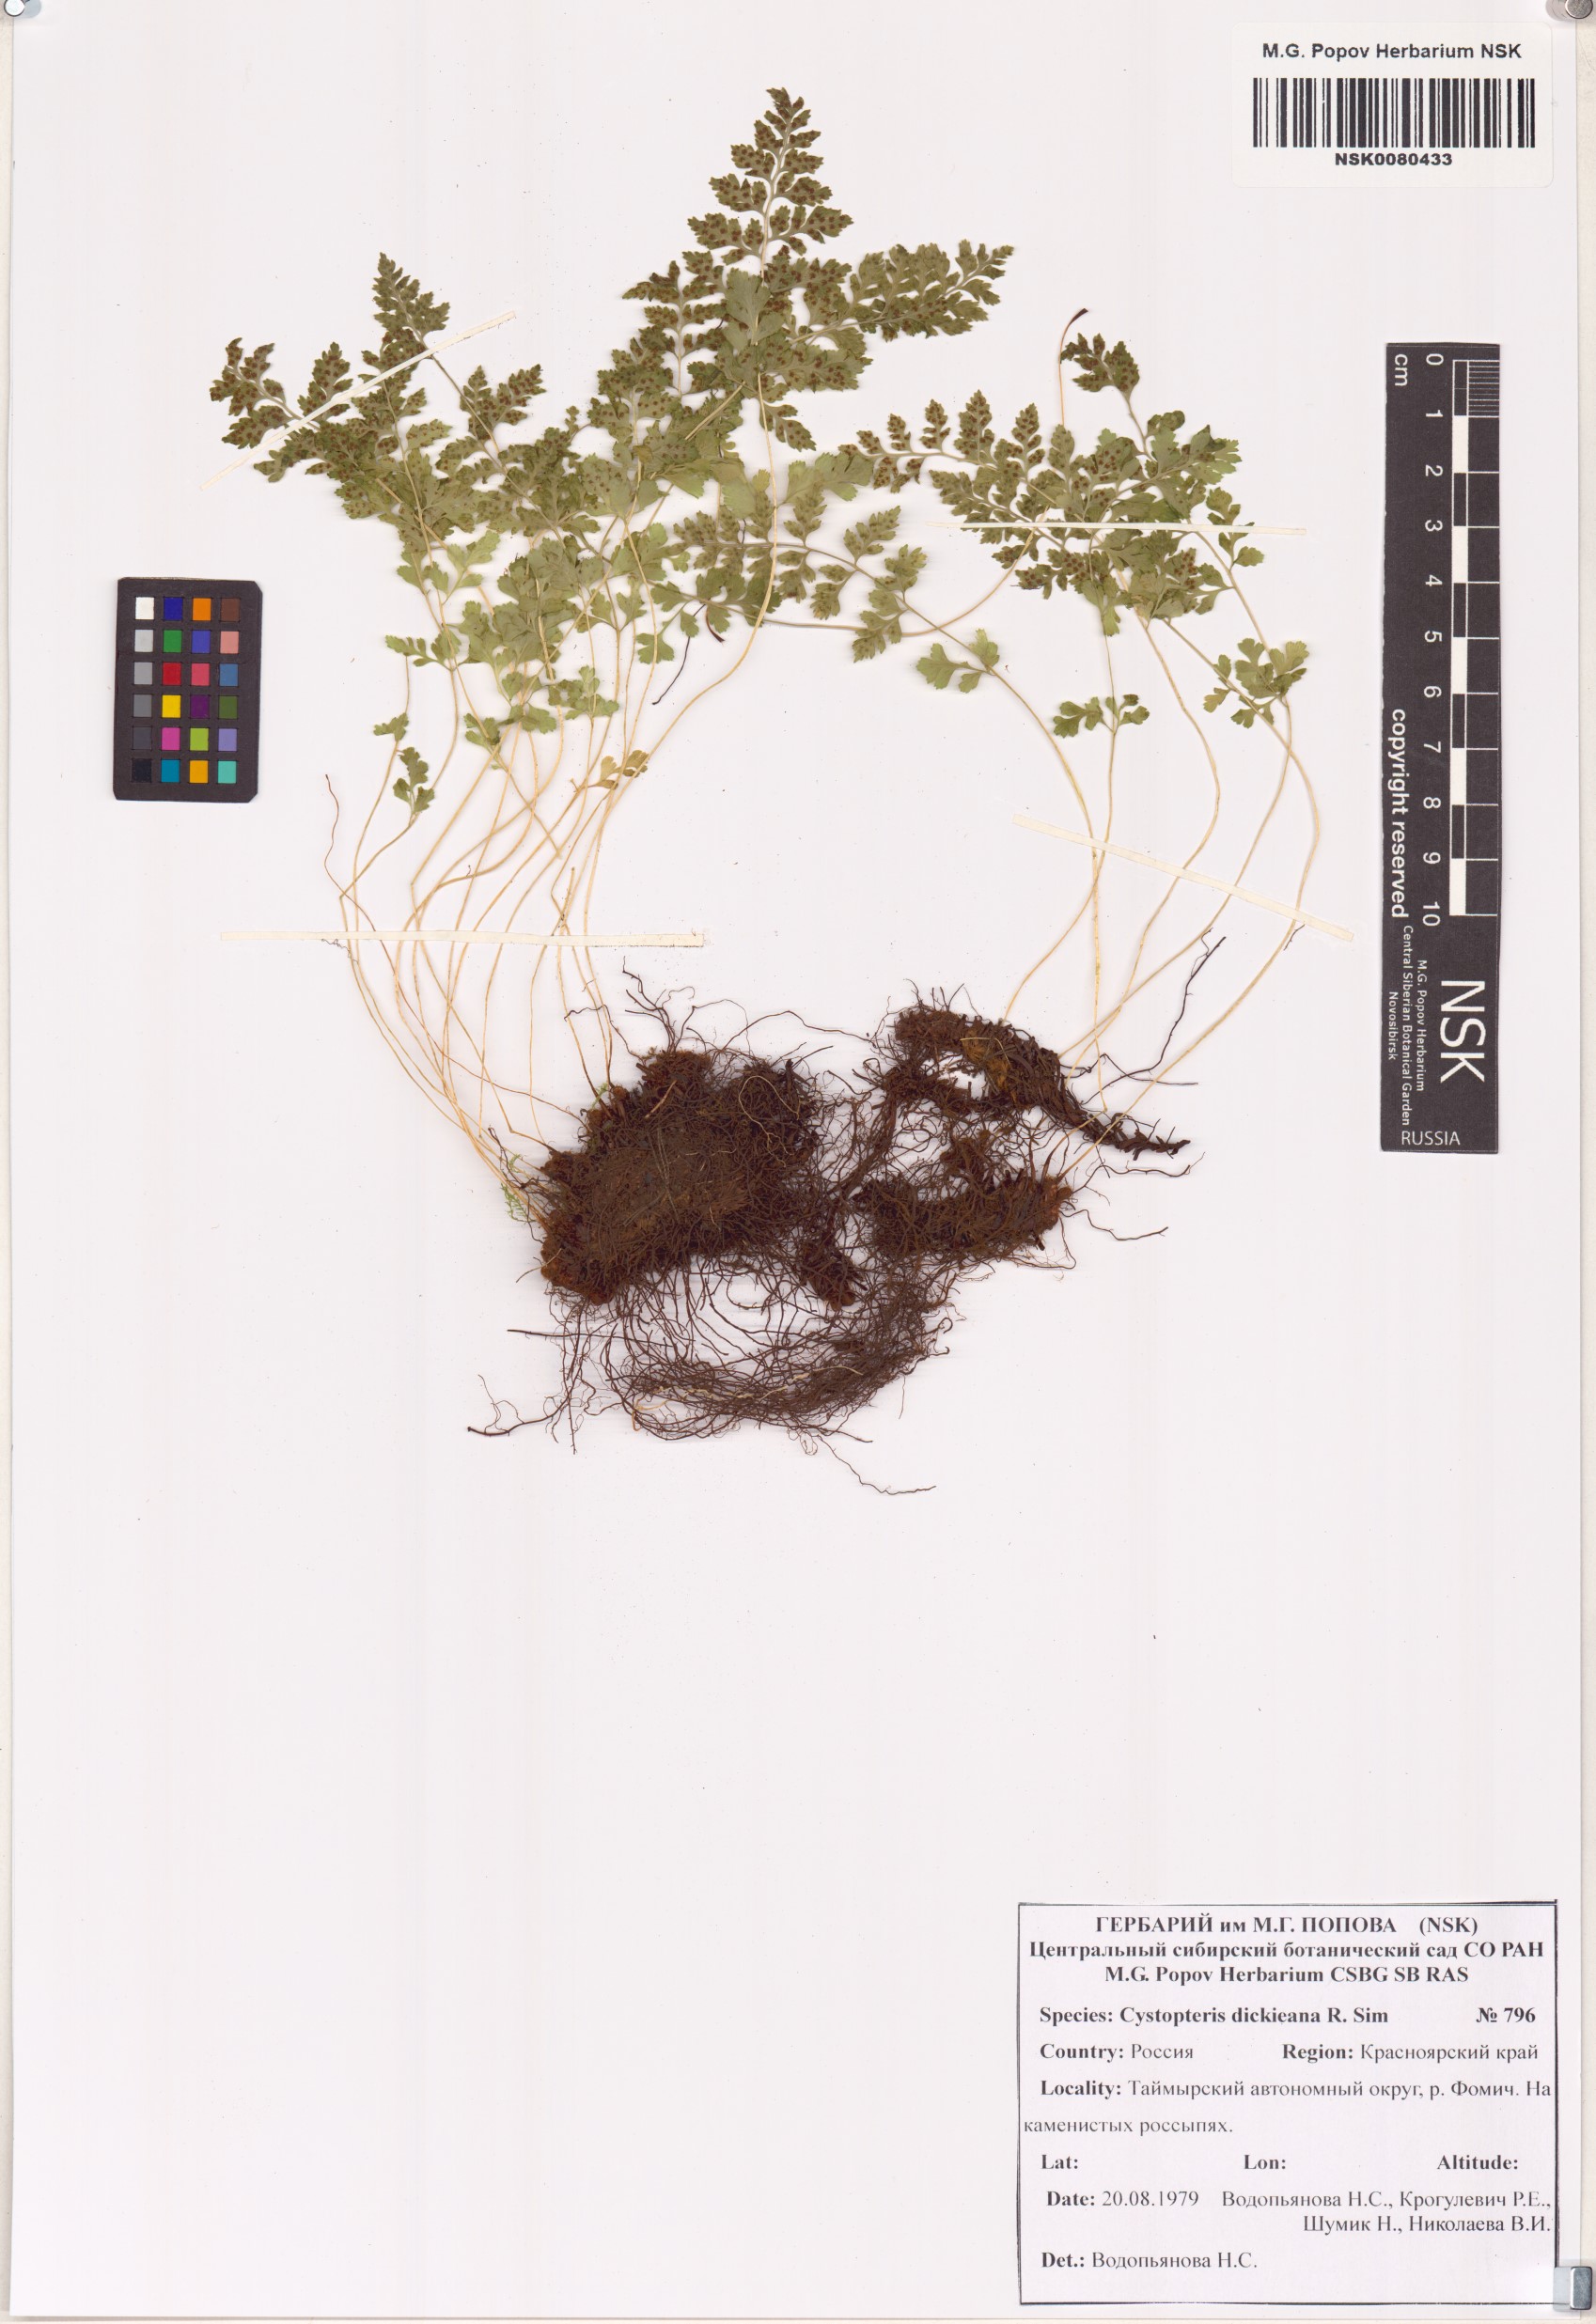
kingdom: Plantae
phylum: Tracheophyta
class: Polypodiopsida
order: Polypodiales
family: Cystopteridaceae
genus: Cystopteris
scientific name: Cystopteris dickieana
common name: Dickie's bladder-fern
